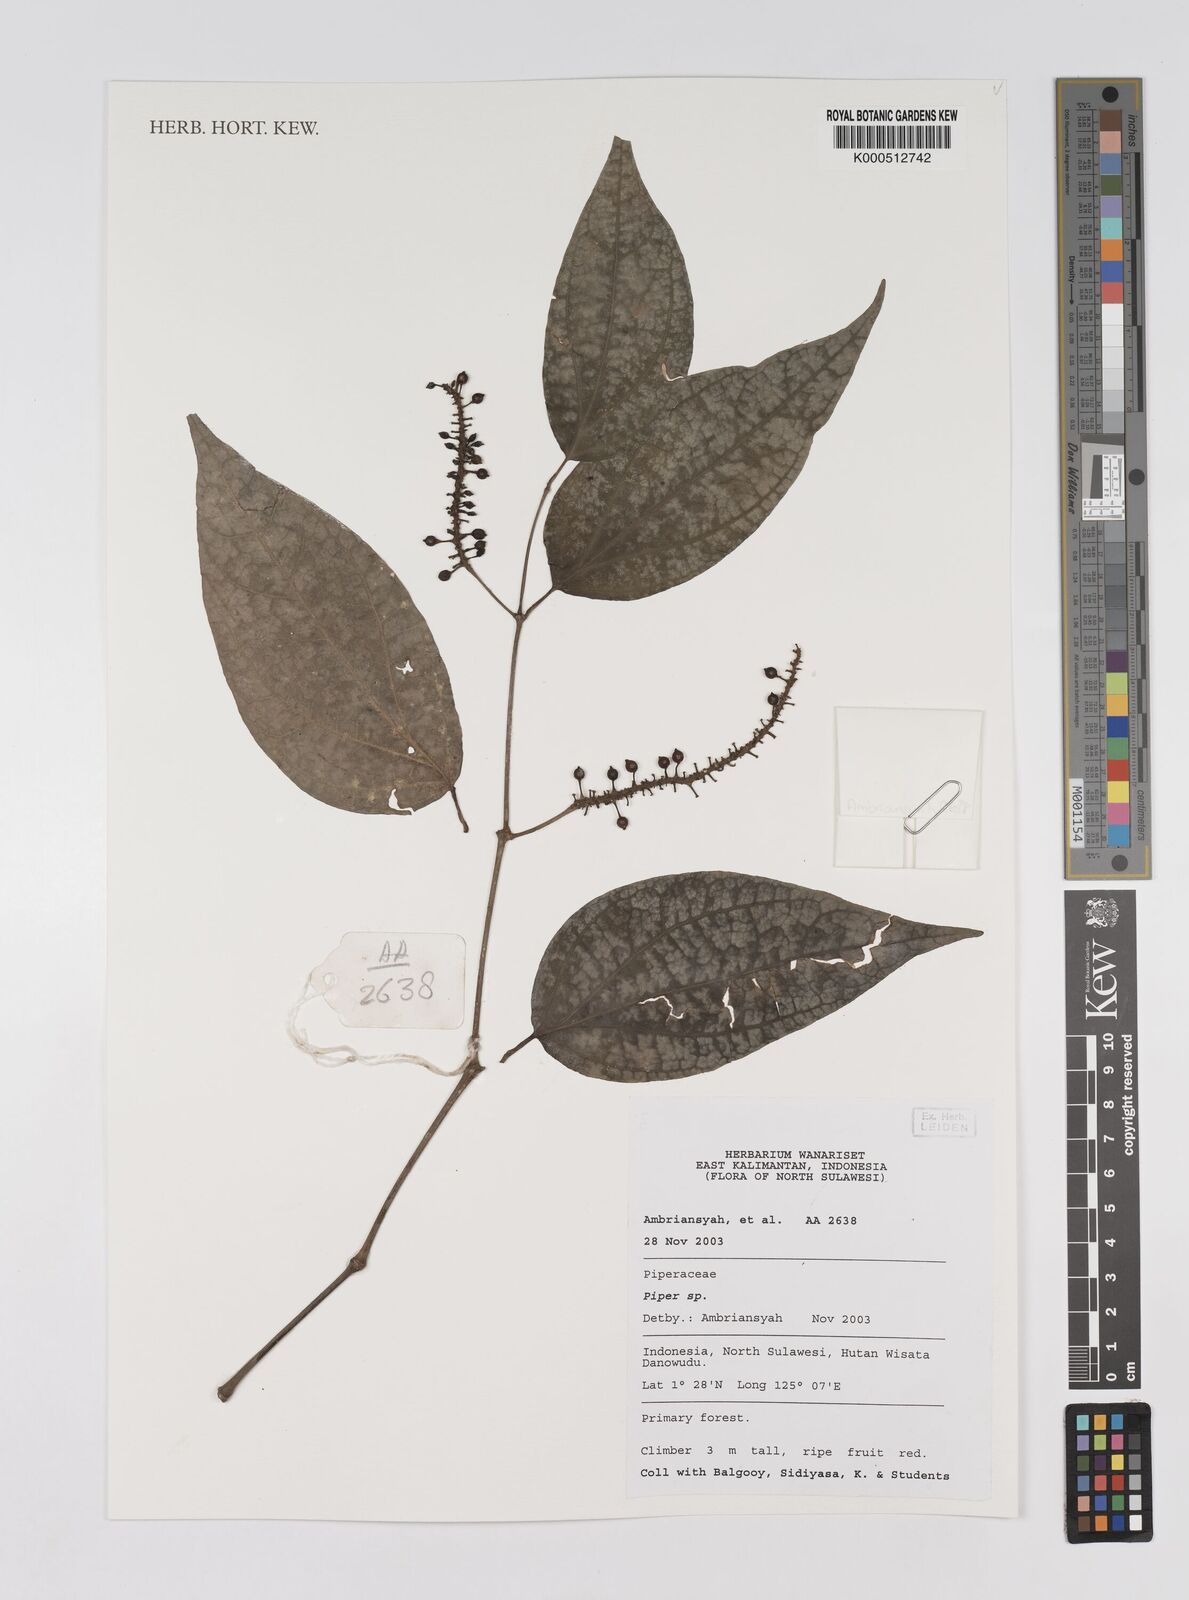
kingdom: Plantae
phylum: Tracheophyta
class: Magnoliopsida
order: Piperales
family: Piperaceae
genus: Piper
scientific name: Piper
